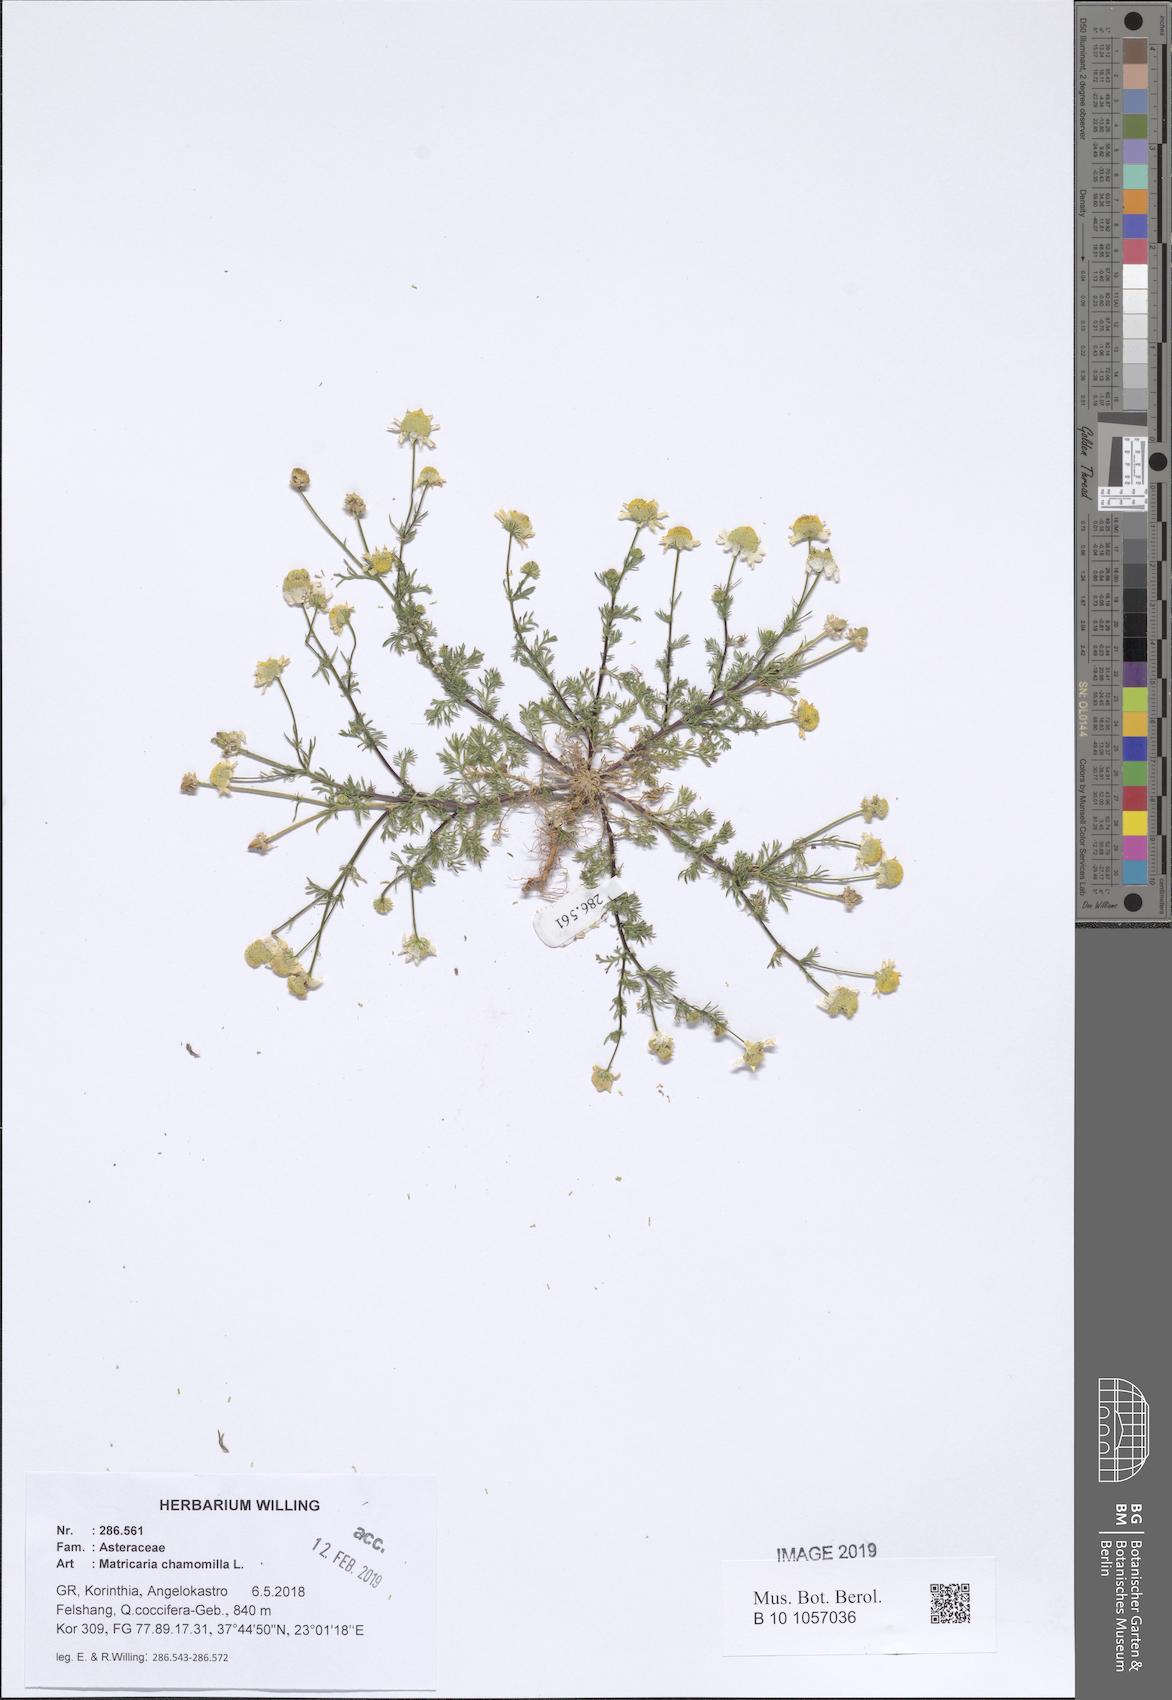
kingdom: Plantae
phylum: Tracheophyta
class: Magnoliopsida
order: Asterales
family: Asteraceae
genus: Matricaria
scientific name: Matricaria chamomilla
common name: Scented mayweed
